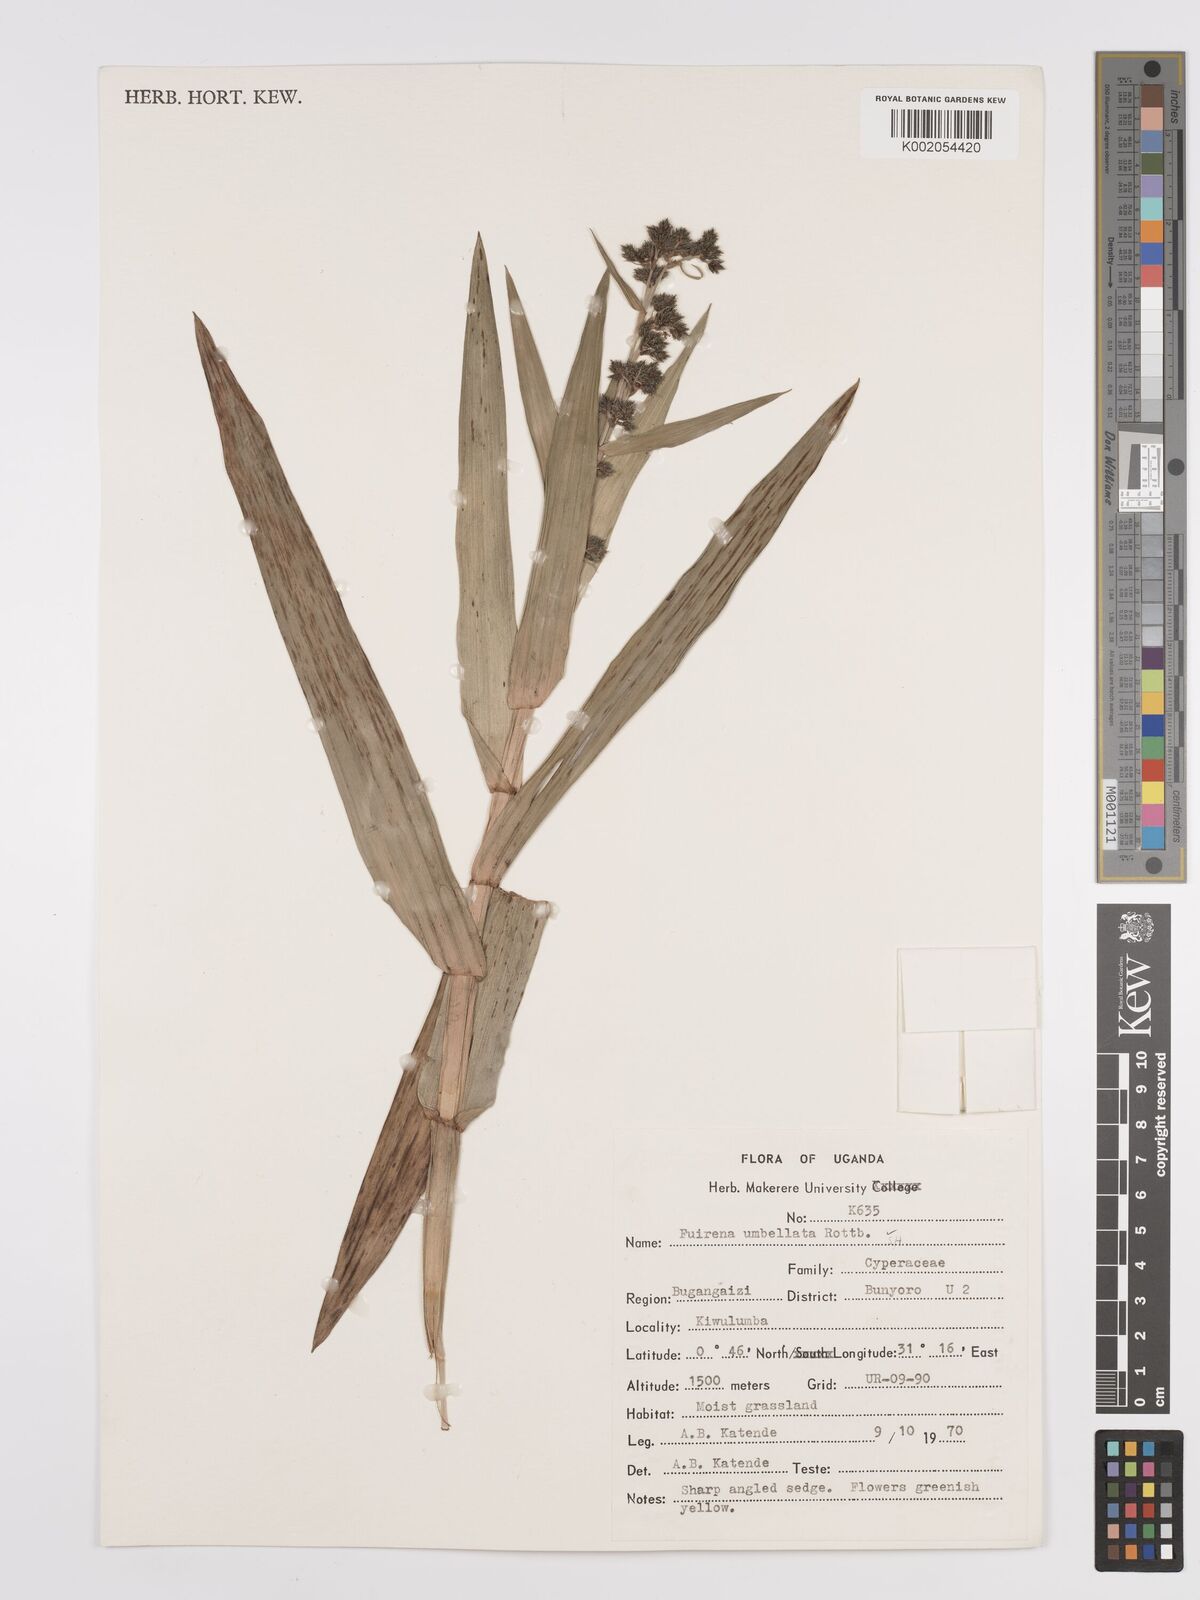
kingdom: Plantae
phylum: Tracheophyta
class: Liliopsida
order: Poales
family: Cyperaceae
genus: Fuirena
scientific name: Fuirena umbellata
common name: Yefen
